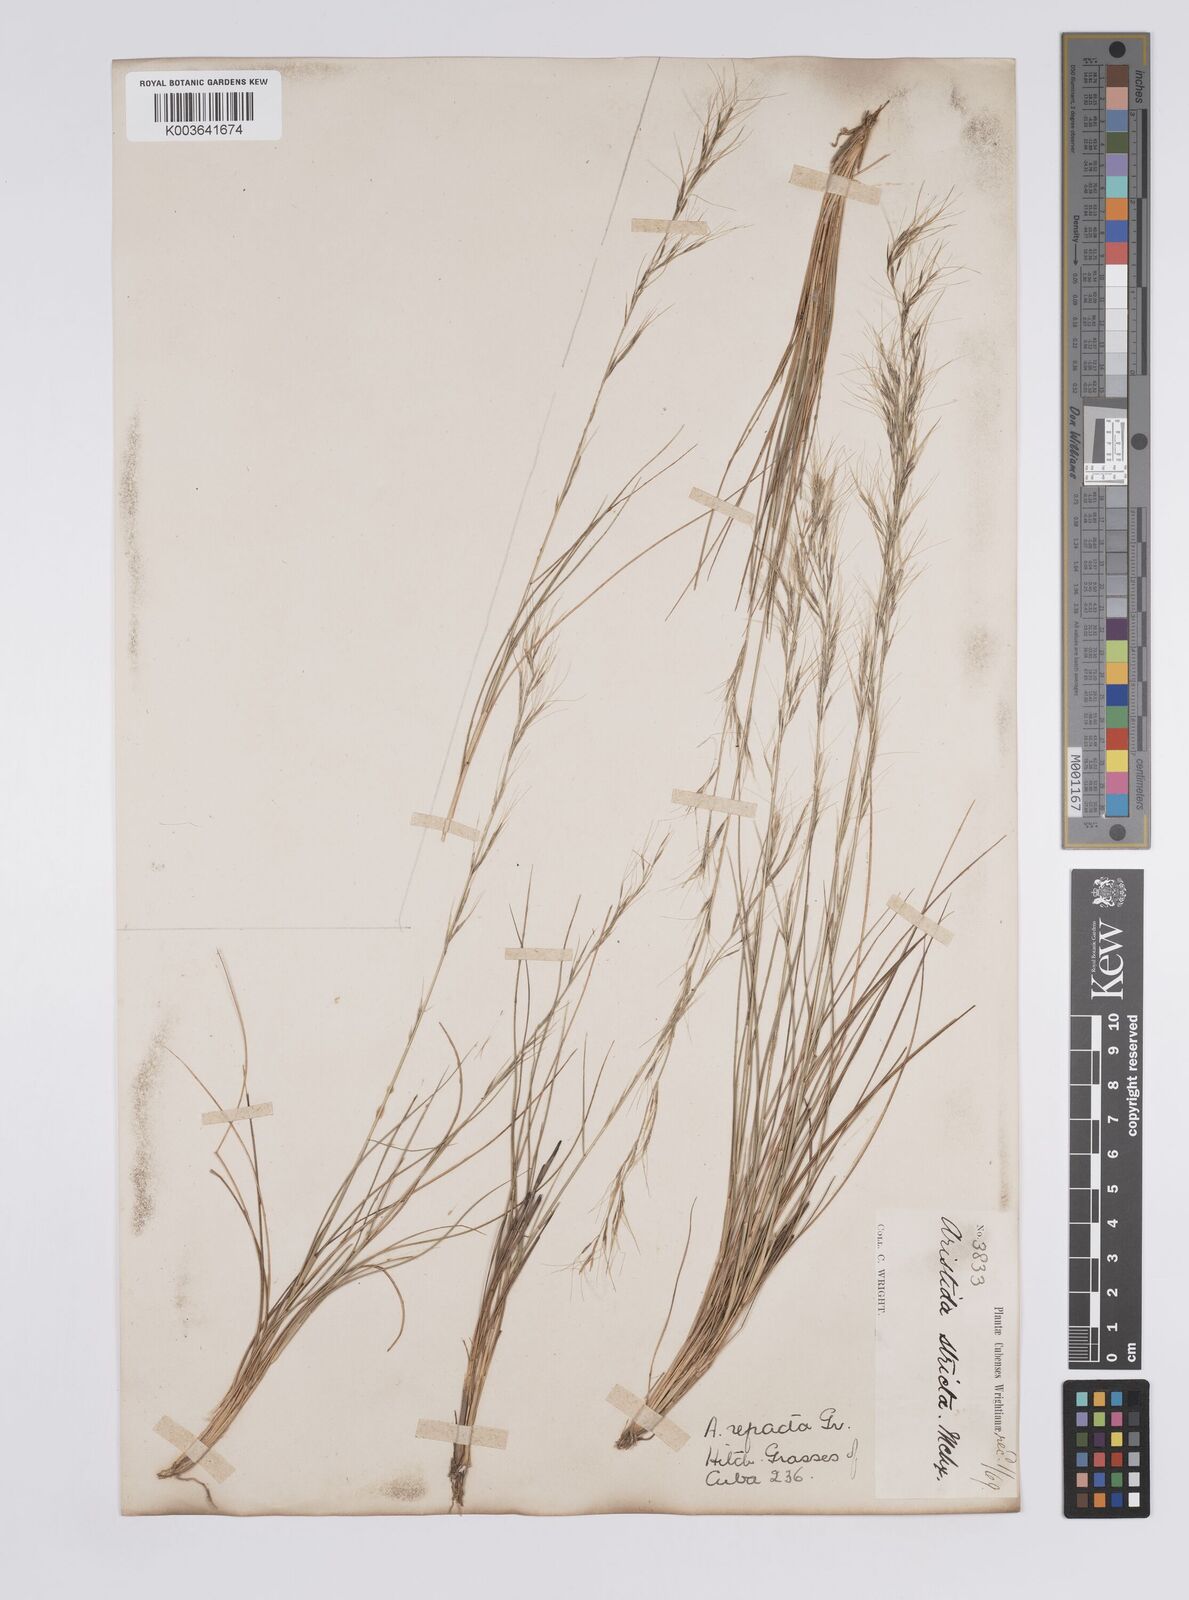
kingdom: Plantae
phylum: Tracheophyta
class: Liliopsida
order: Poales
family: Poaceae
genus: Aristida
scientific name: Aristida refracta
